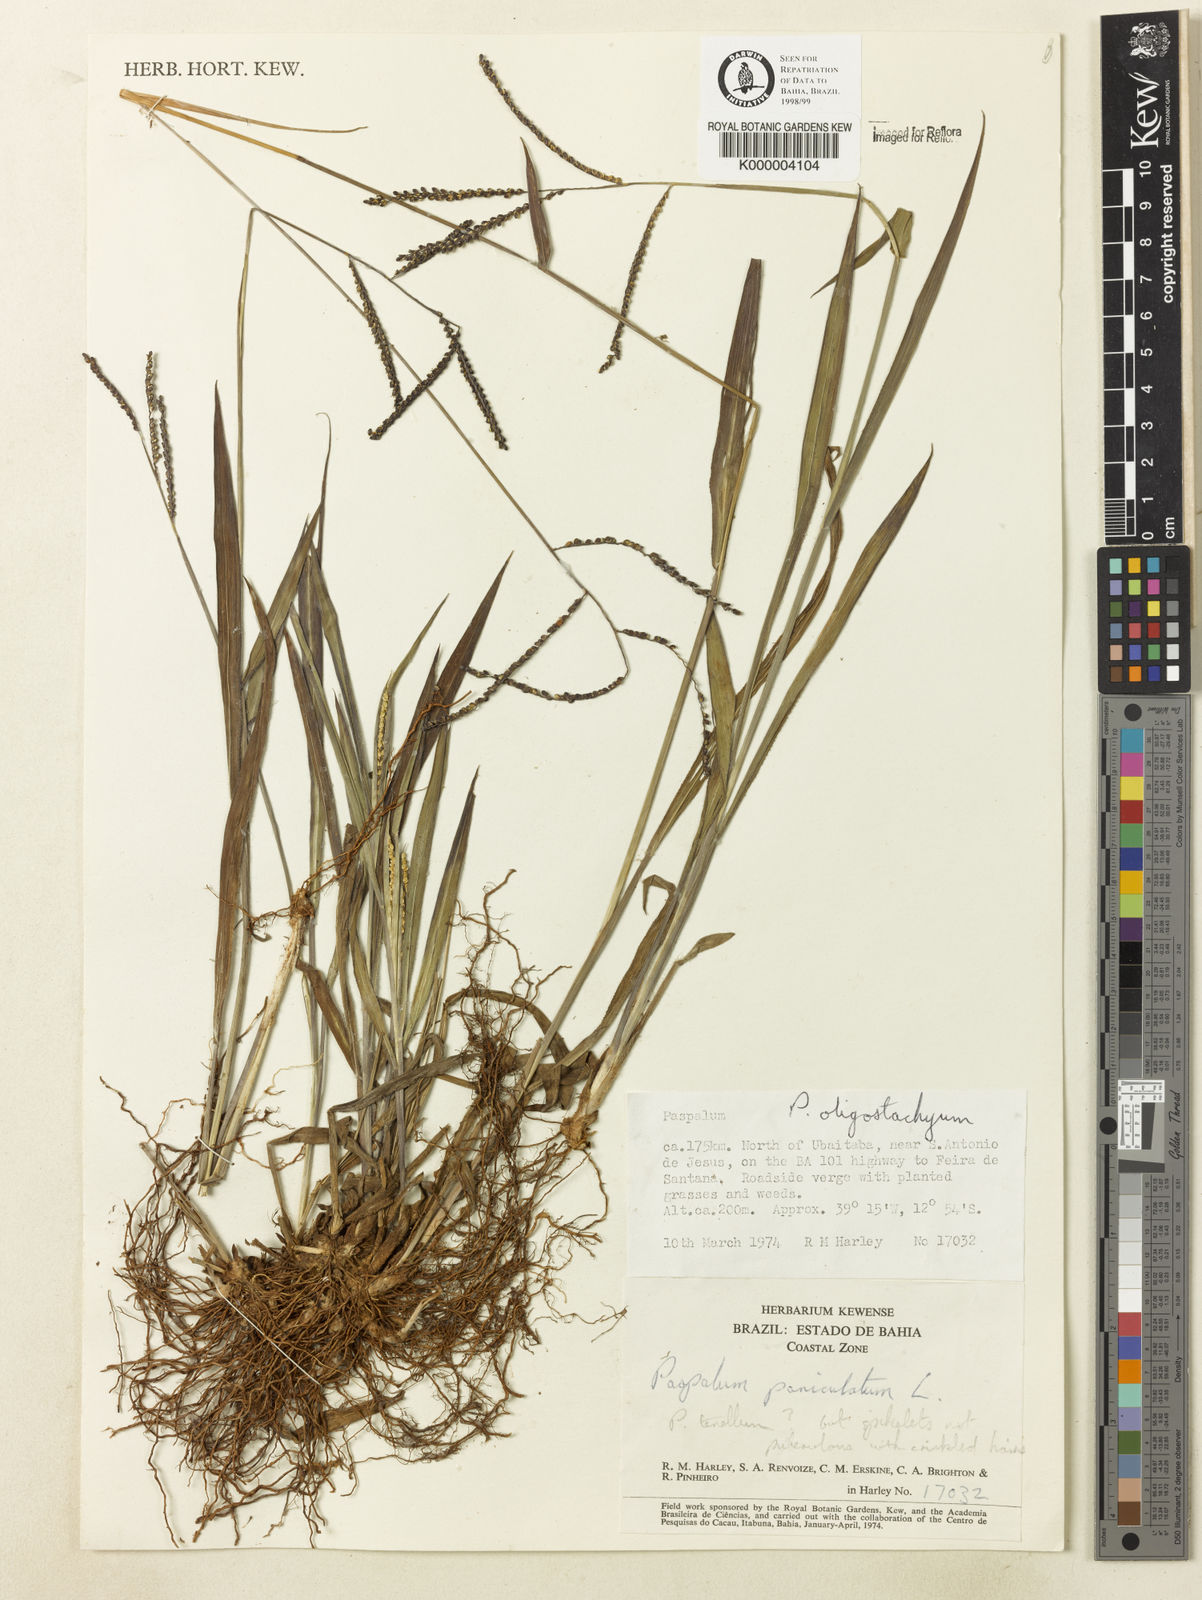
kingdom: Plantae
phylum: Tracheophyta
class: Liliopsida
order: Poales
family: Poaceae
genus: Paspalum
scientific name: Paspalum
